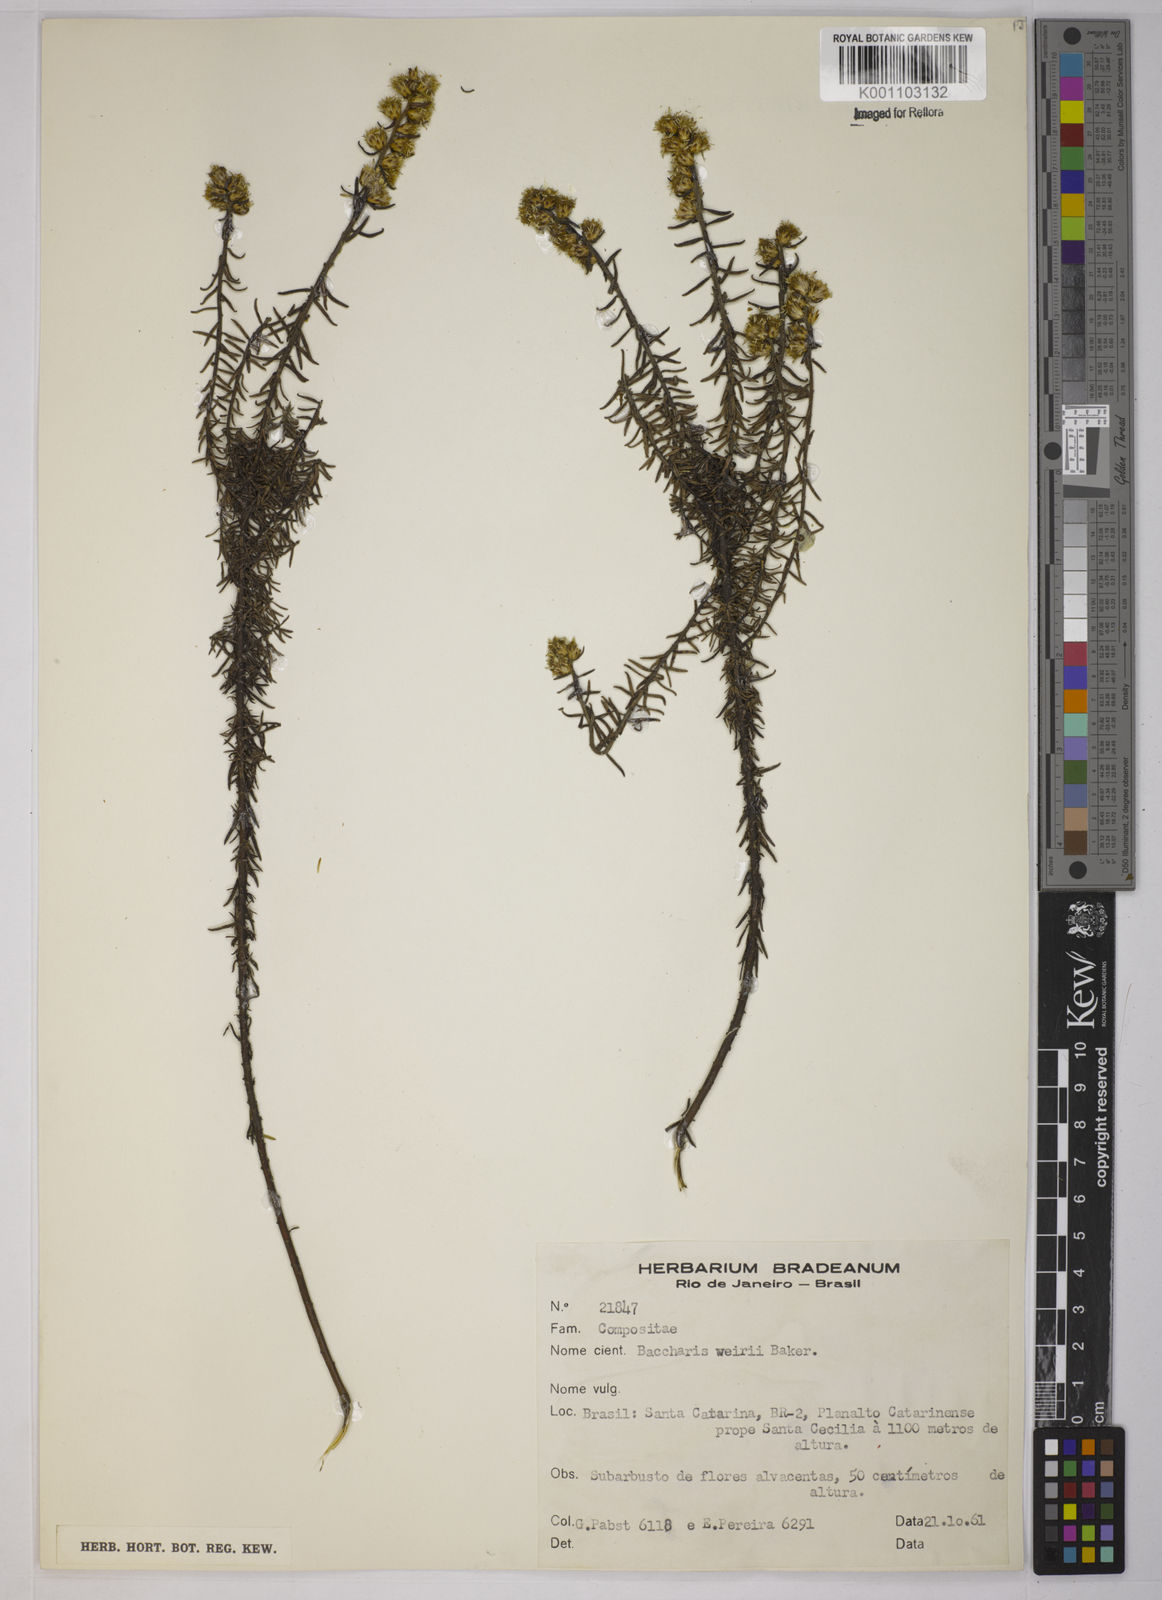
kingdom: Plantae
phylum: Tracheophyta
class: Magnoliopsida
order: Asterales
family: Asteraceae
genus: Baccharis
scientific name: Baccharis megapotamica
